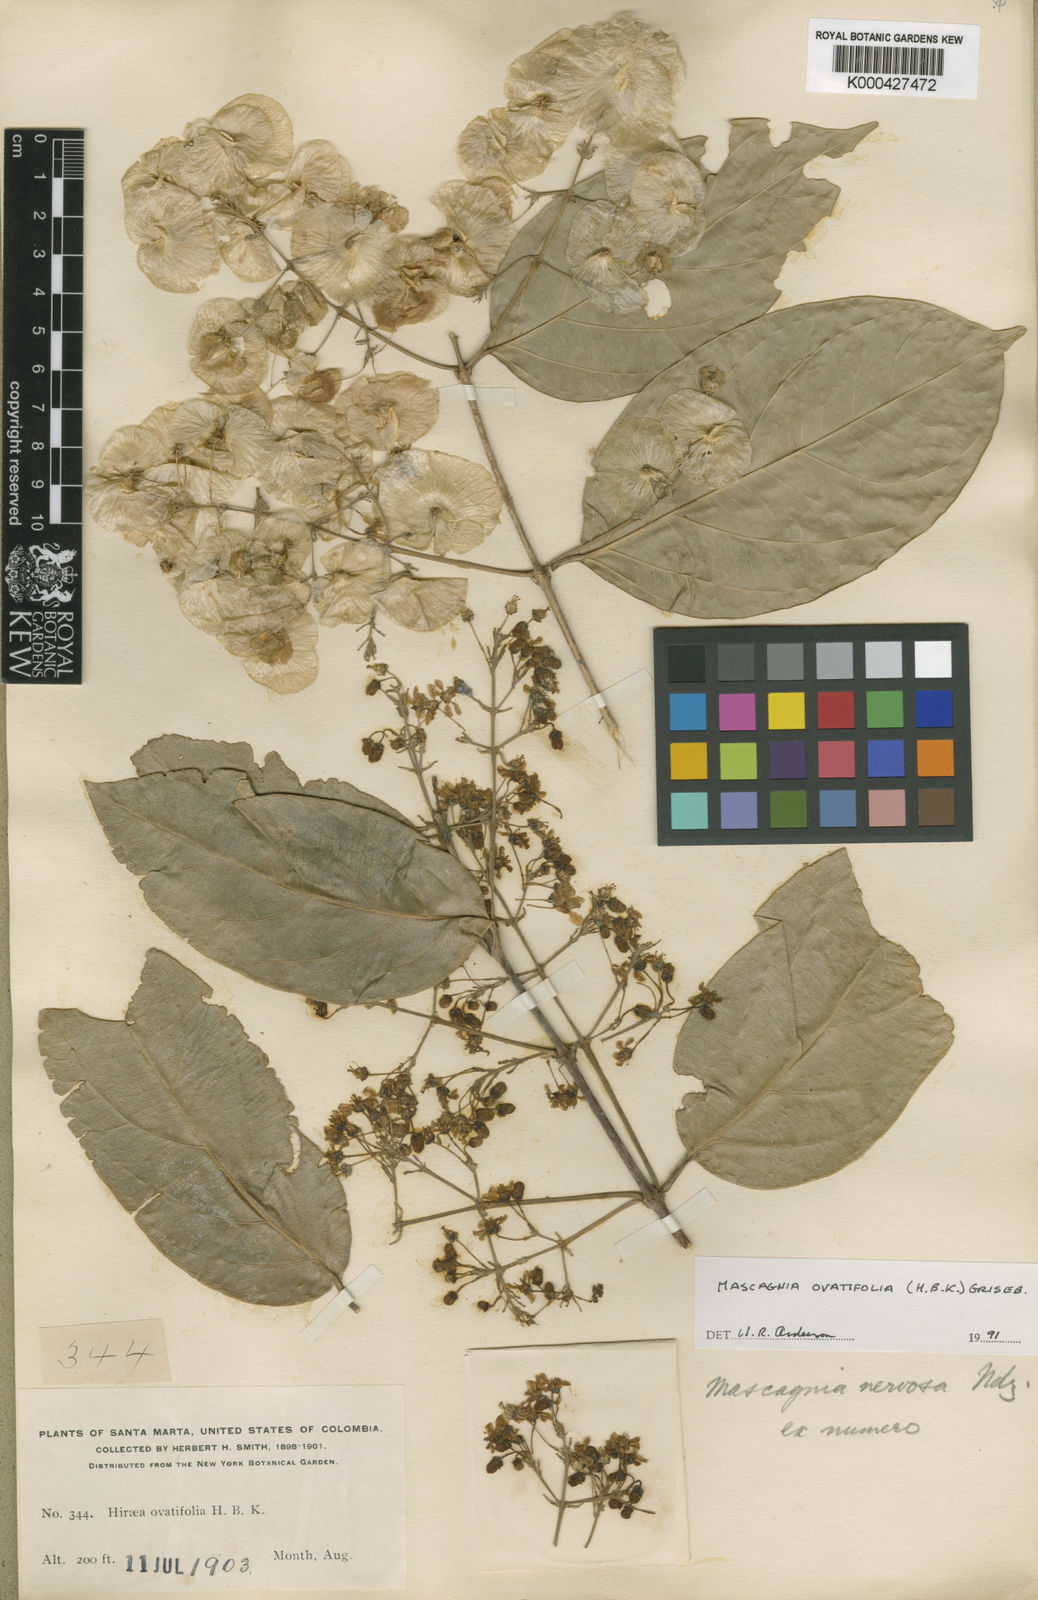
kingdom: Plantae
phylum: Tracheophyta
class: Magnoliopsida
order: Malpighiales
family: Malpighiaceae
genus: Mascagnia
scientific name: Mascagnia ovatifolia
